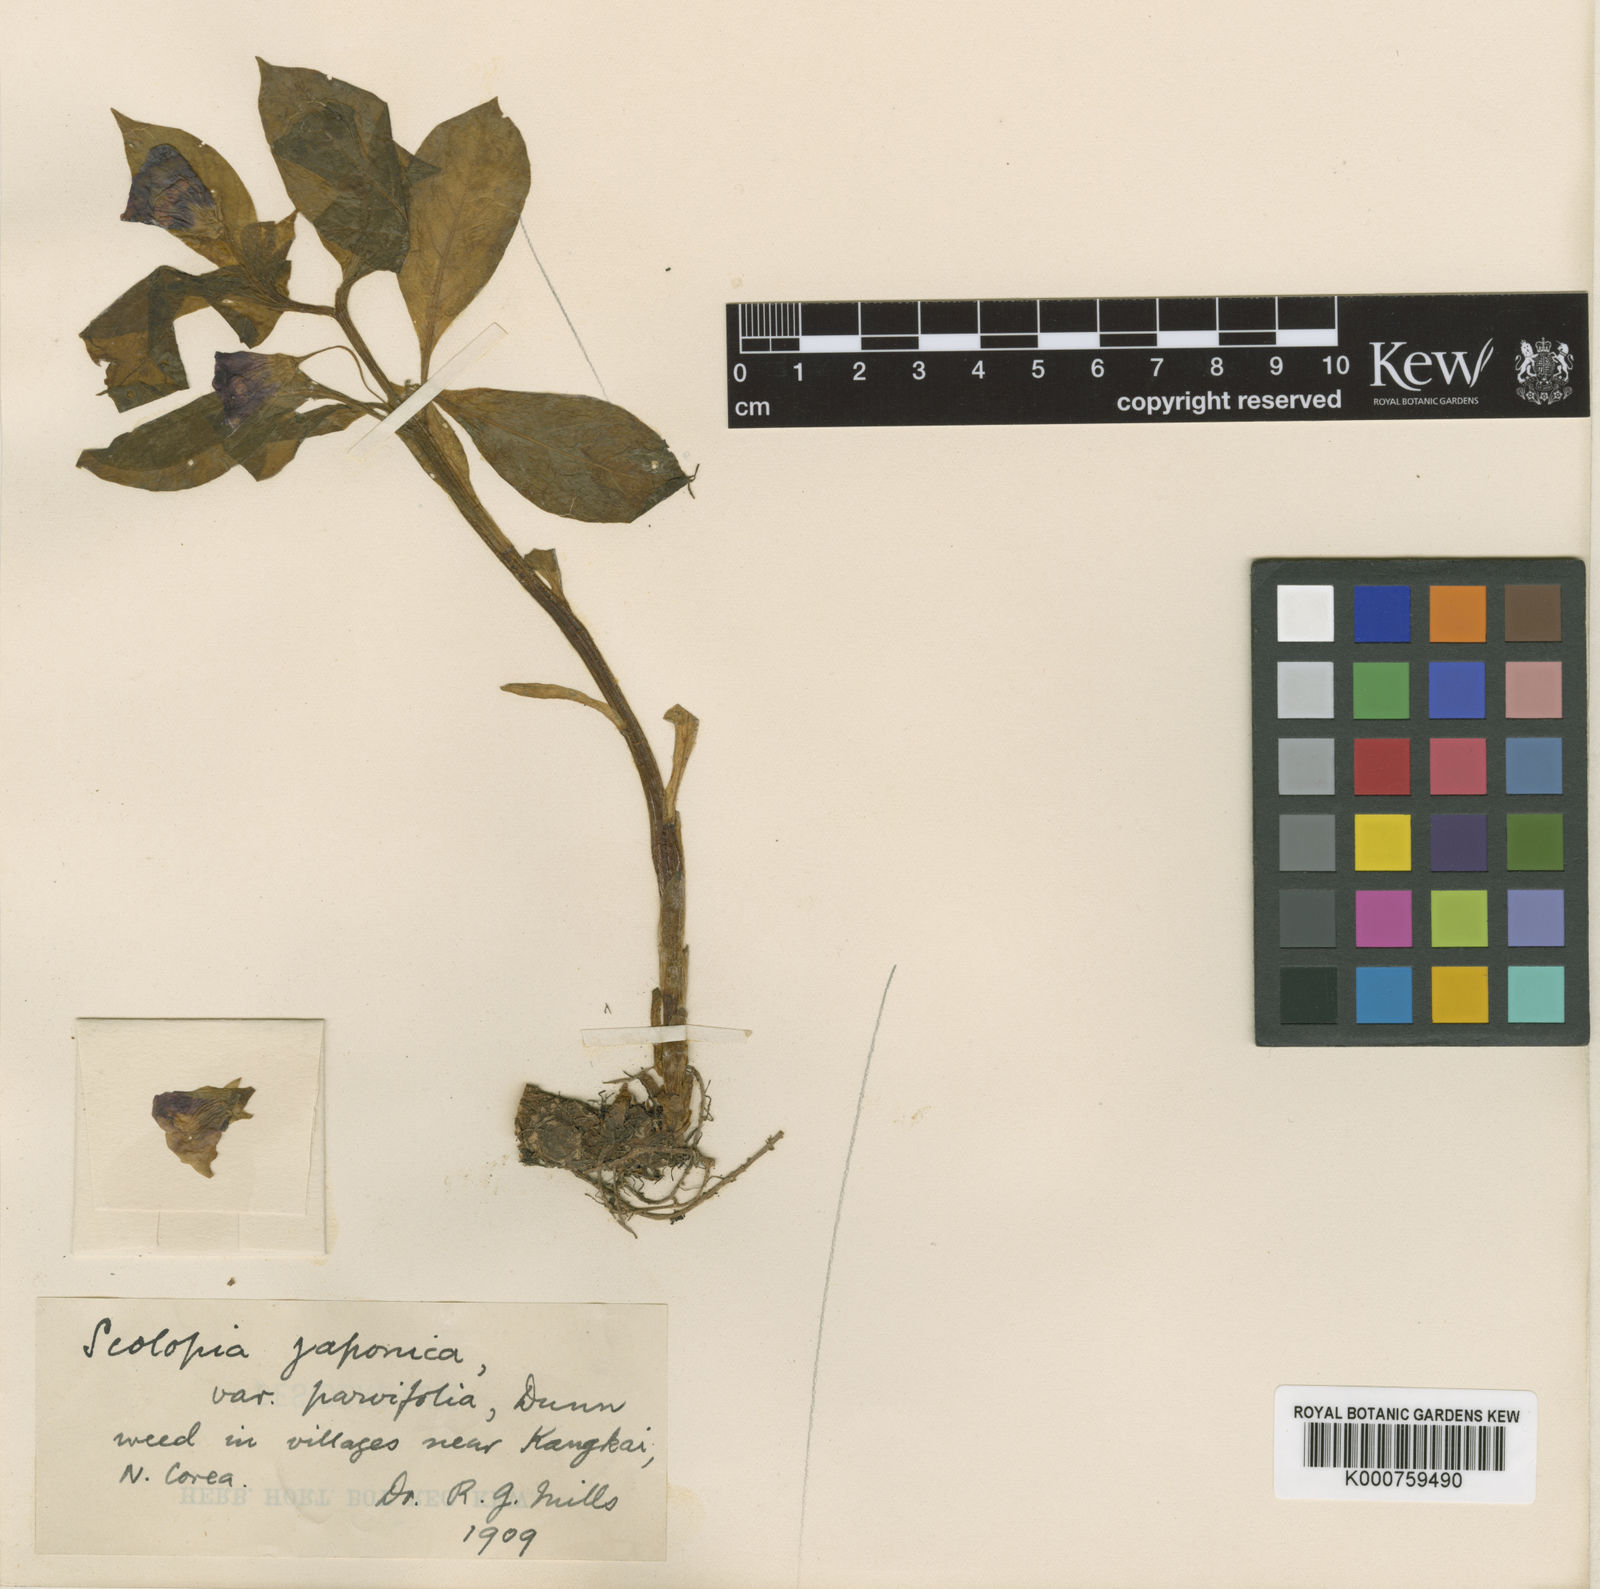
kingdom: Plantae
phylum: Tracheophyta
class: Magnoliopsida
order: Solanales
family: Solanaceae
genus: Scopolia
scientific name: Scopolia japonica
